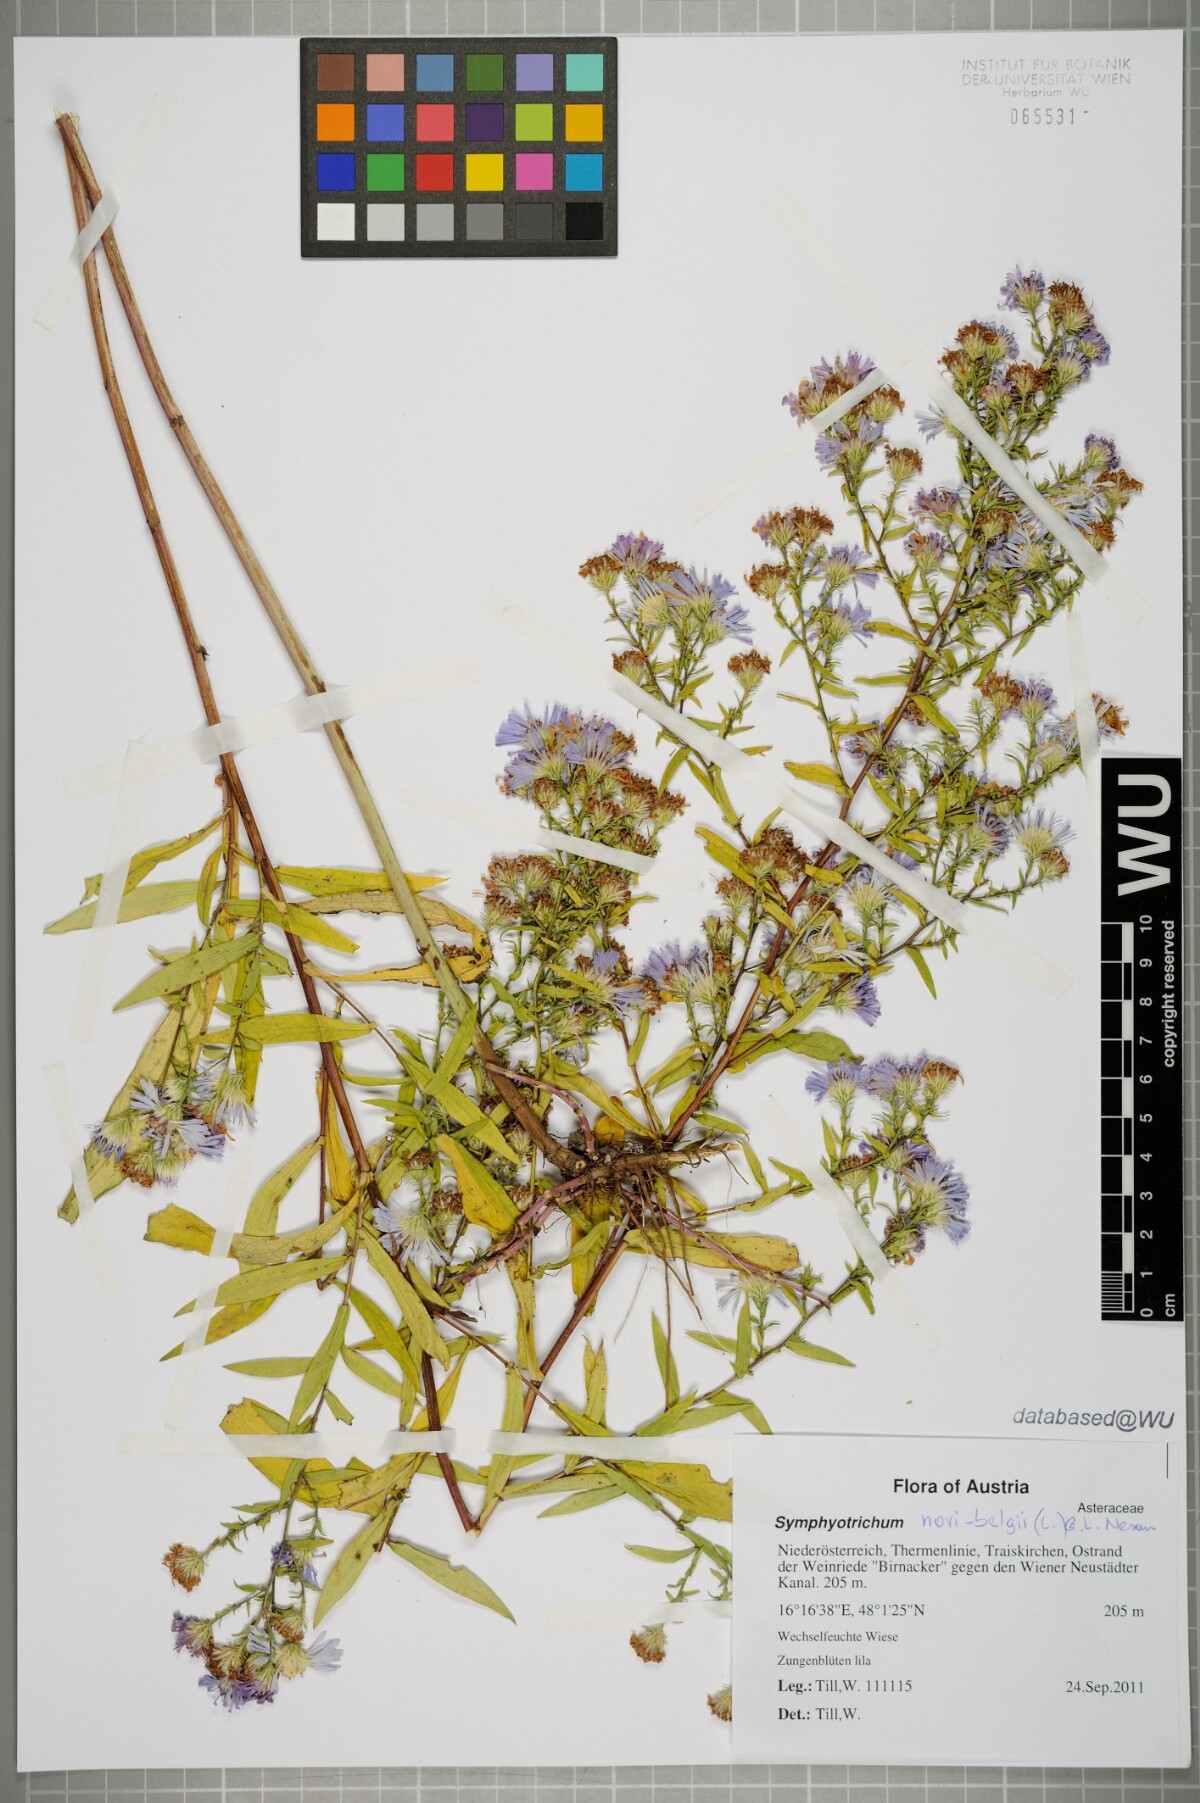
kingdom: Plantae
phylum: Tracheophyta
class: Magnoliopsida
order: Asterales
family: Asteraceae
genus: Symphyotrichum
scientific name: Symphyotrichum novi-belgii
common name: Michaelmas daisy
